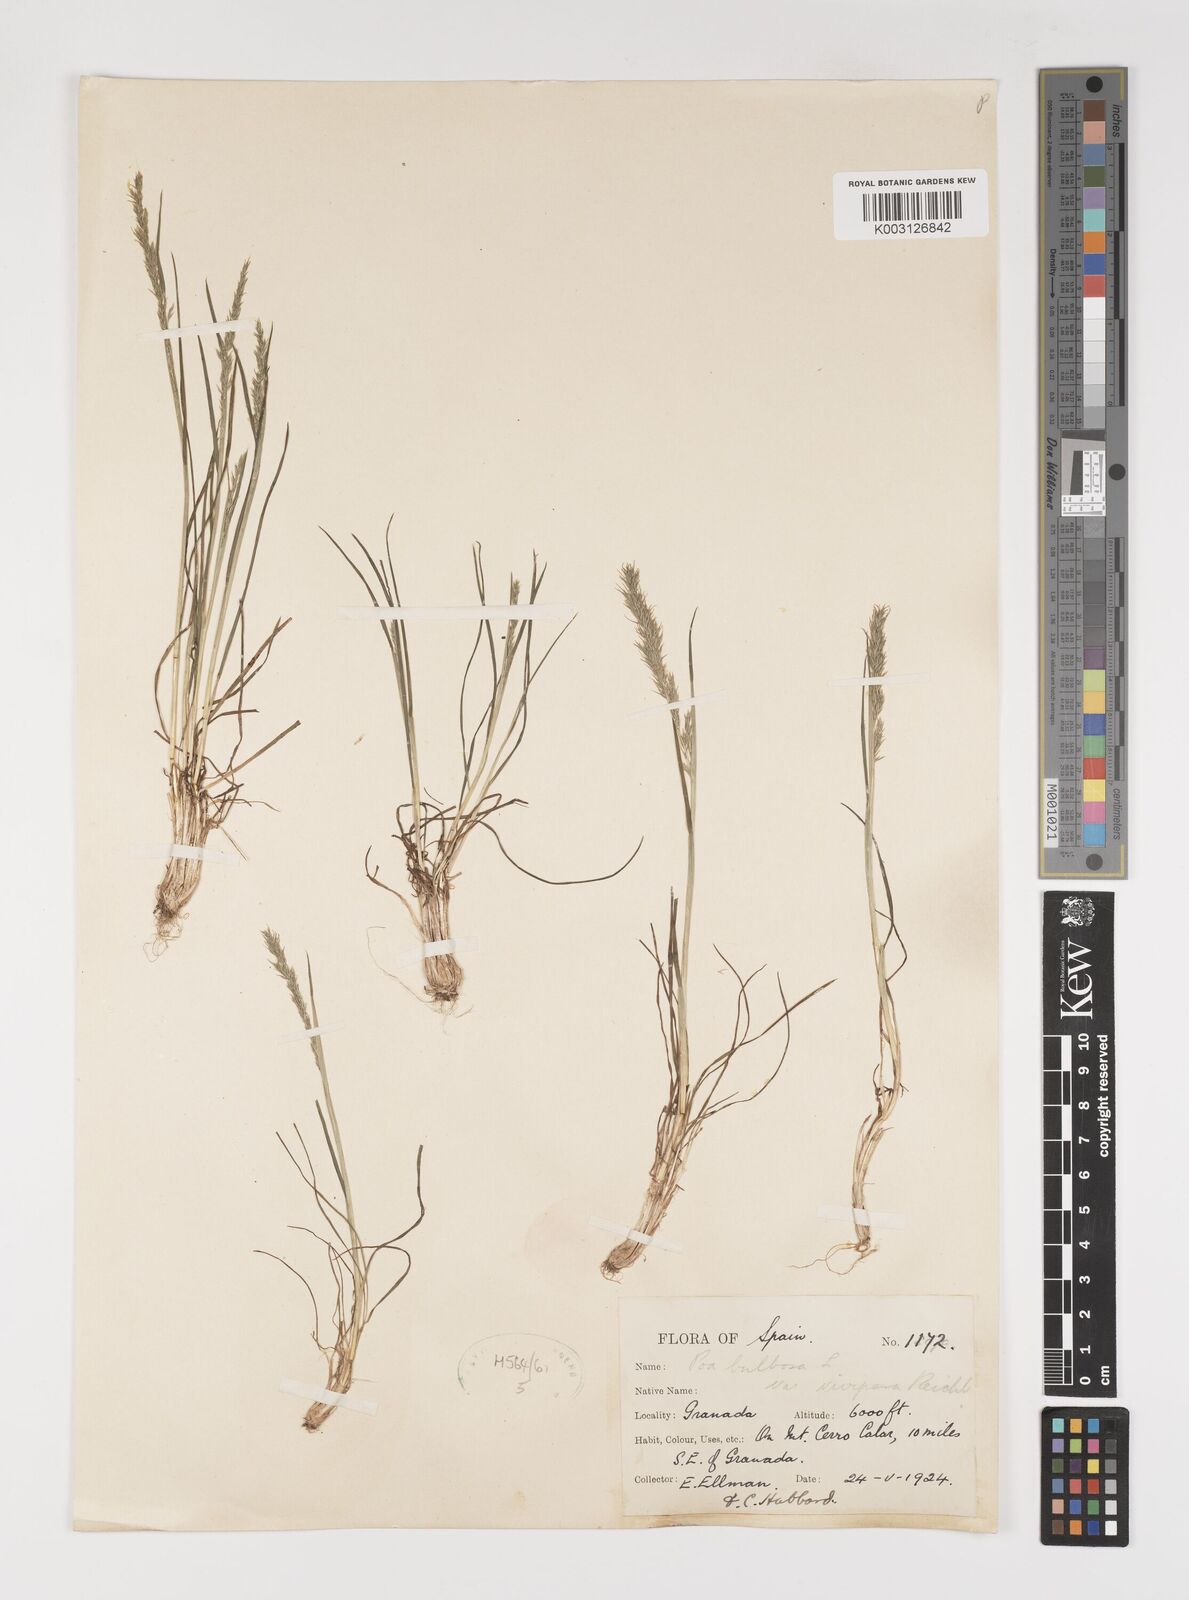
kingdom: Plantae
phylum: Tracheophyta
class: Liliopsida
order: Poales
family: Poaceae
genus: Poa
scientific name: Poa bulbosa
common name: Bulbous bluegrass
